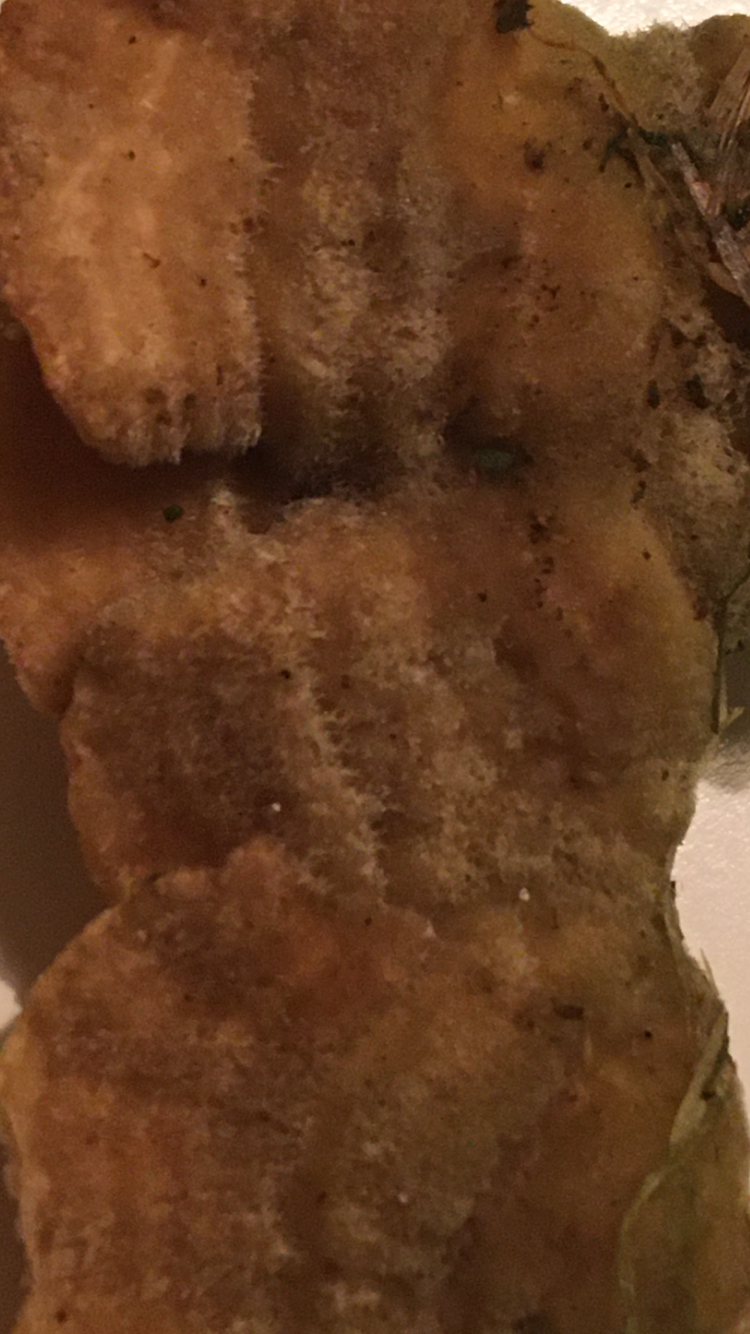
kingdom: Fungi
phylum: Basidiomycota
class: Agaricomycetes
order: Polyporales
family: Polyporaceae
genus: Lenzites
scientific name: Lenzites betulinus
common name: birke-læderporesvamp
